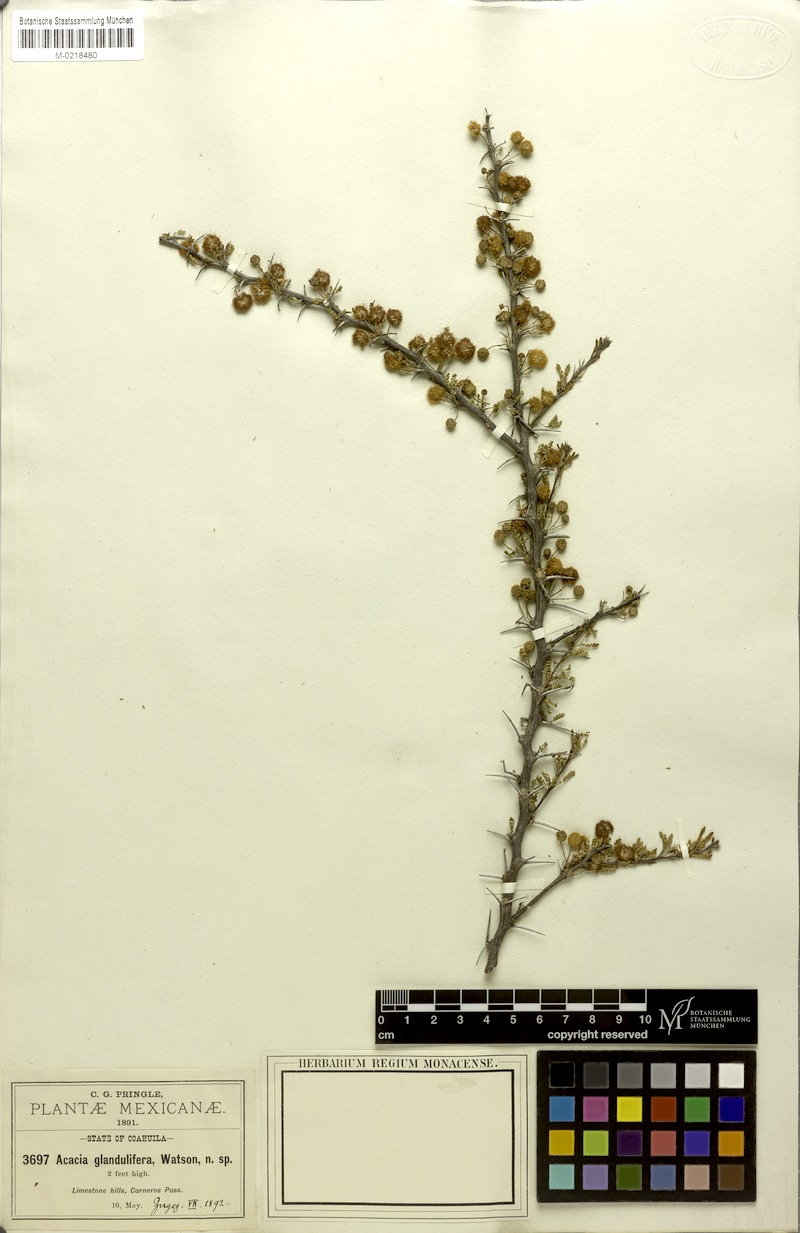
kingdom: Plantae
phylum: Tracheophyta
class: Magnoliopsida
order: Fabales
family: Fabaceae
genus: Vachellia
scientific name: Vachellia glandulifera
